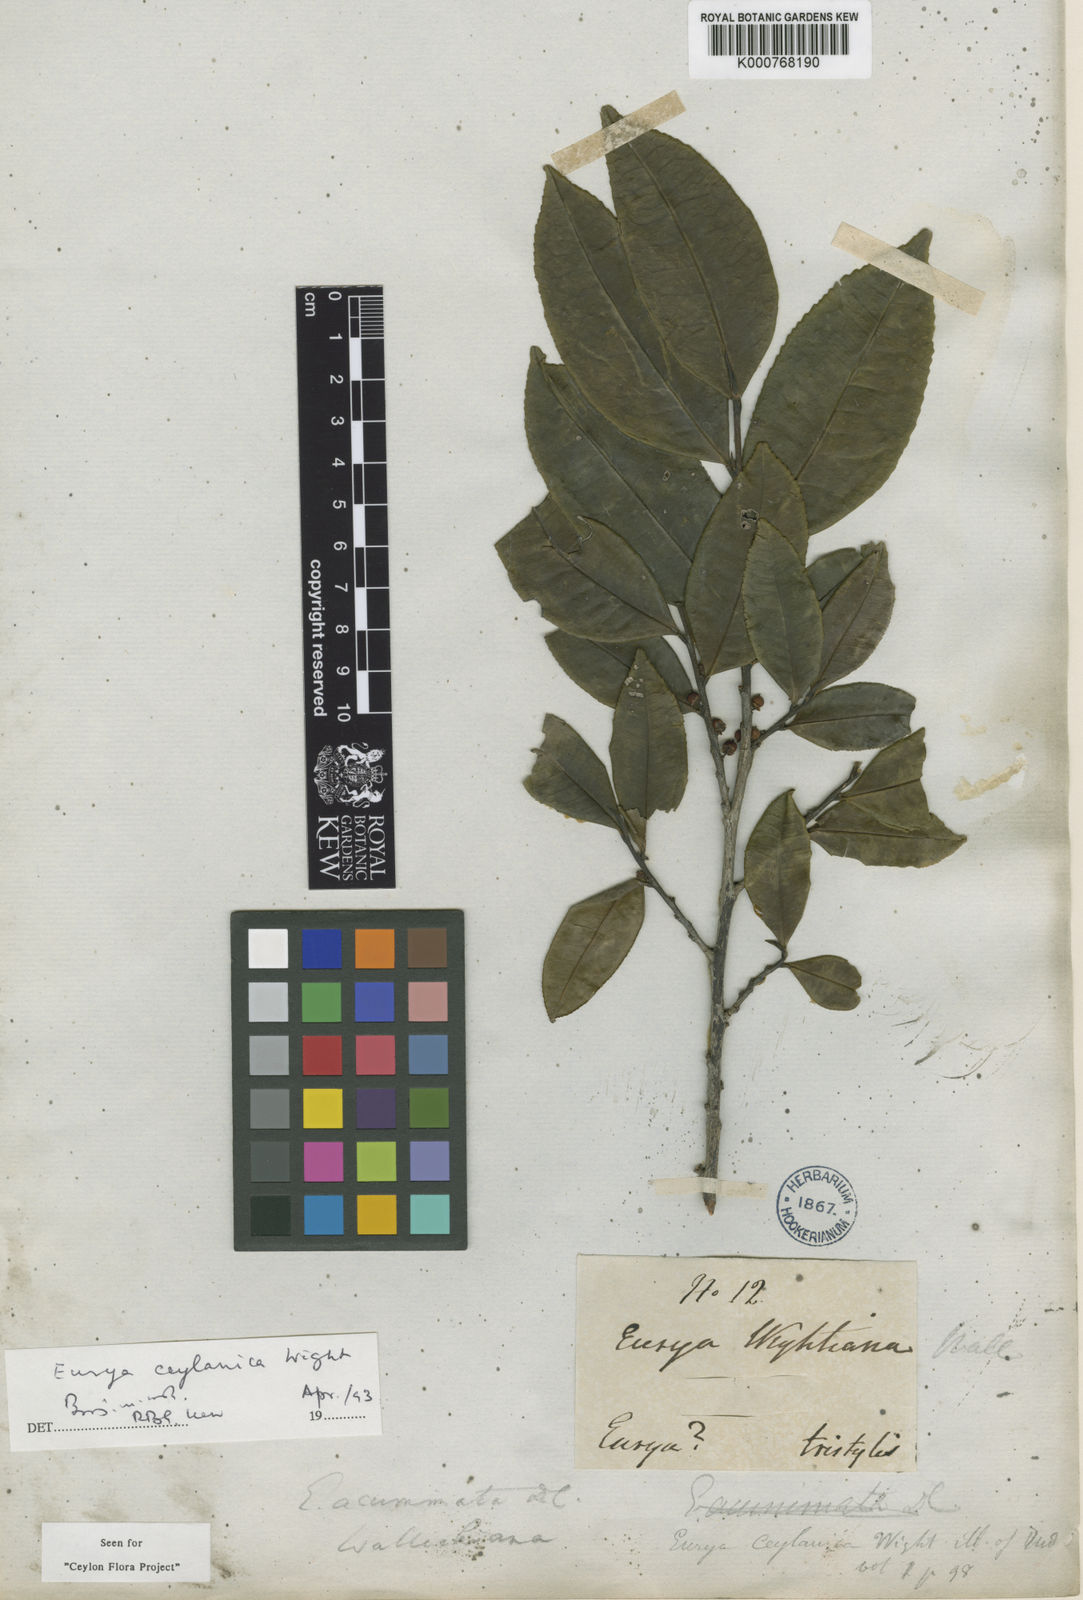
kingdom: Plantae
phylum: Tracheophyta
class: Magnoliopsida
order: Ericales
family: Pentaphylacaceae
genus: Eurya
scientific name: Eurya ceylanica
